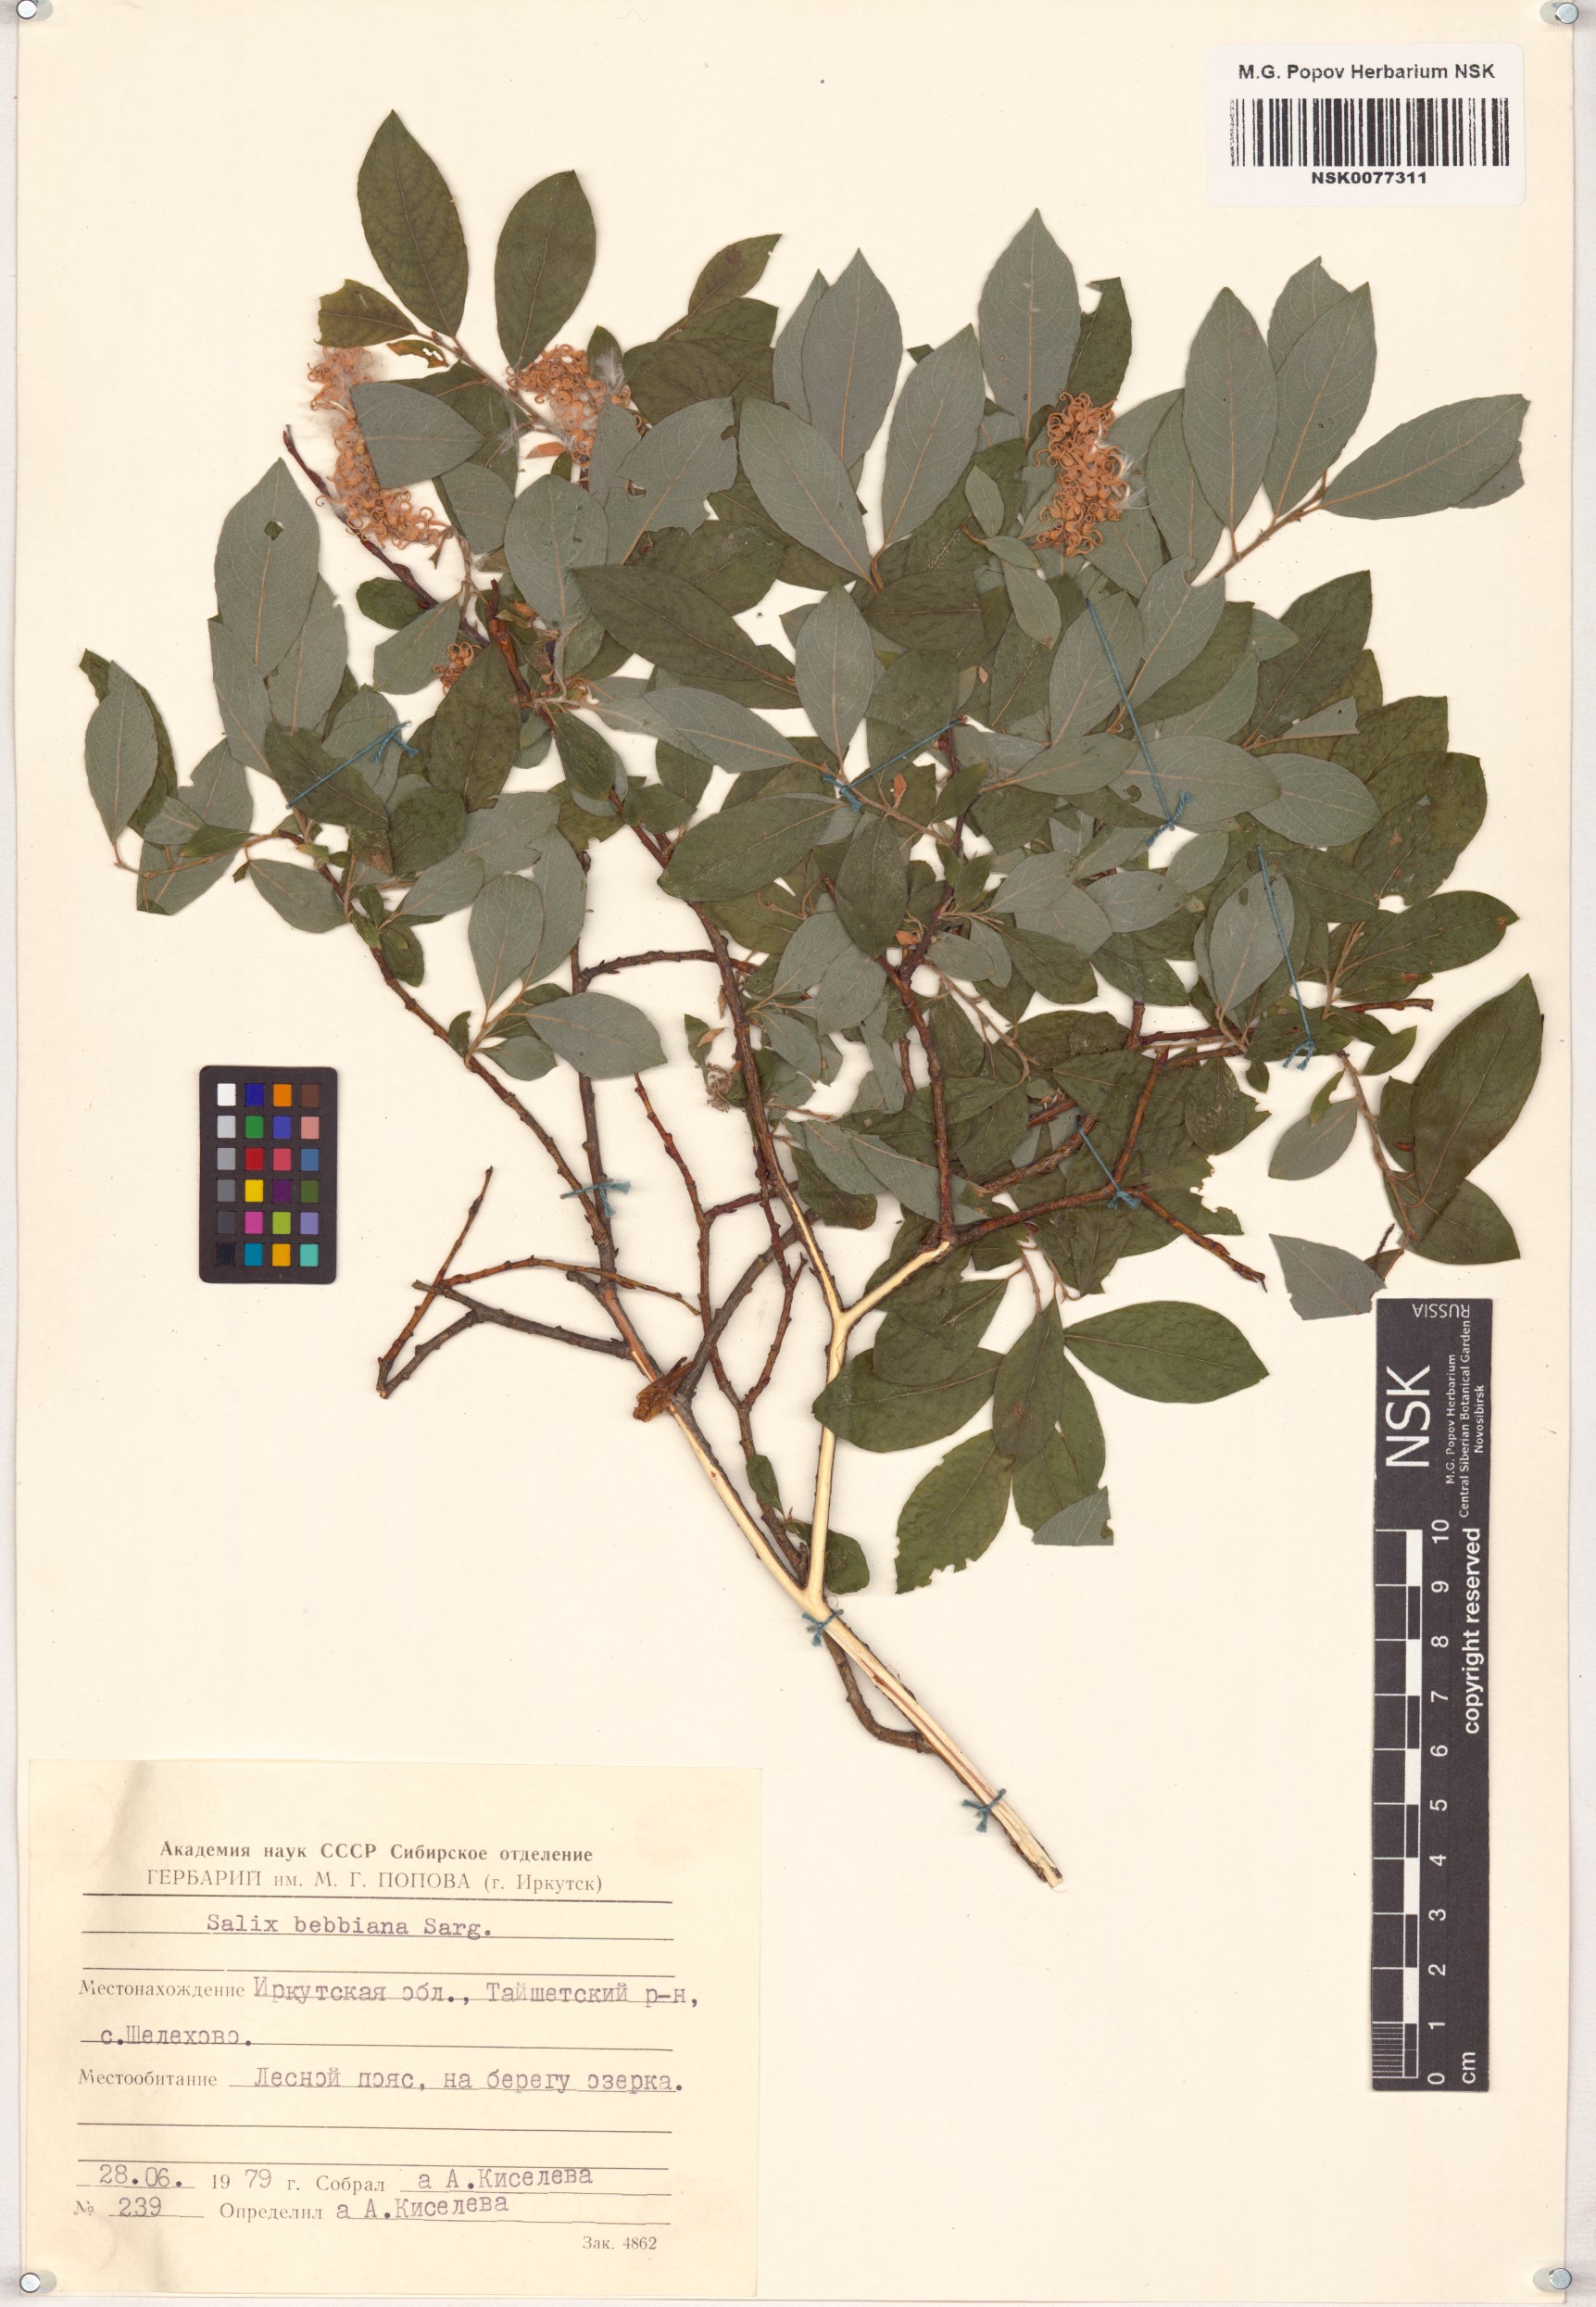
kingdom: Plantae
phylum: Tracheophyta
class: Magnoliopsida
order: Malpighiales
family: Salicaceae
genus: Salix
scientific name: Salix bebbiana
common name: Bebb's willow
